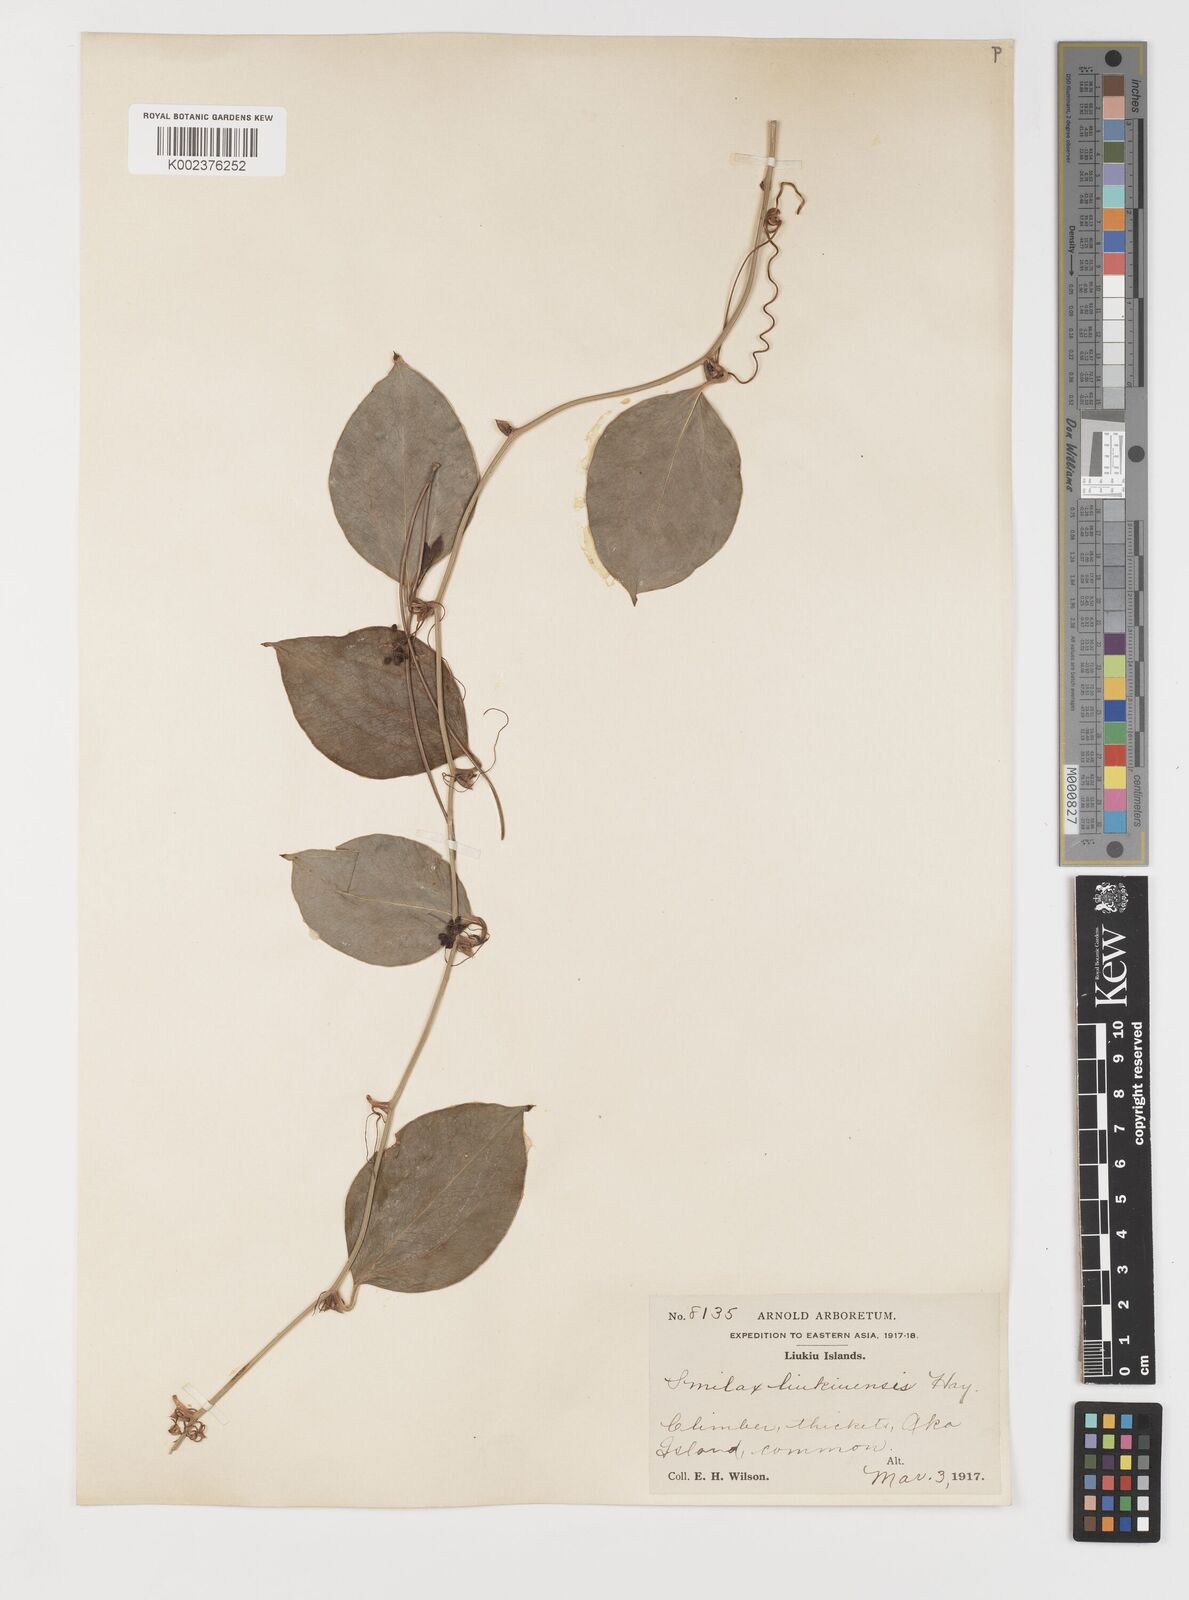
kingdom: Plantae
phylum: Tracheophyta
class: Liliopsida
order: Liliales
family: Smilacaceae
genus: Smilax
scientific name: Smilax china
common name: Chinaroot
